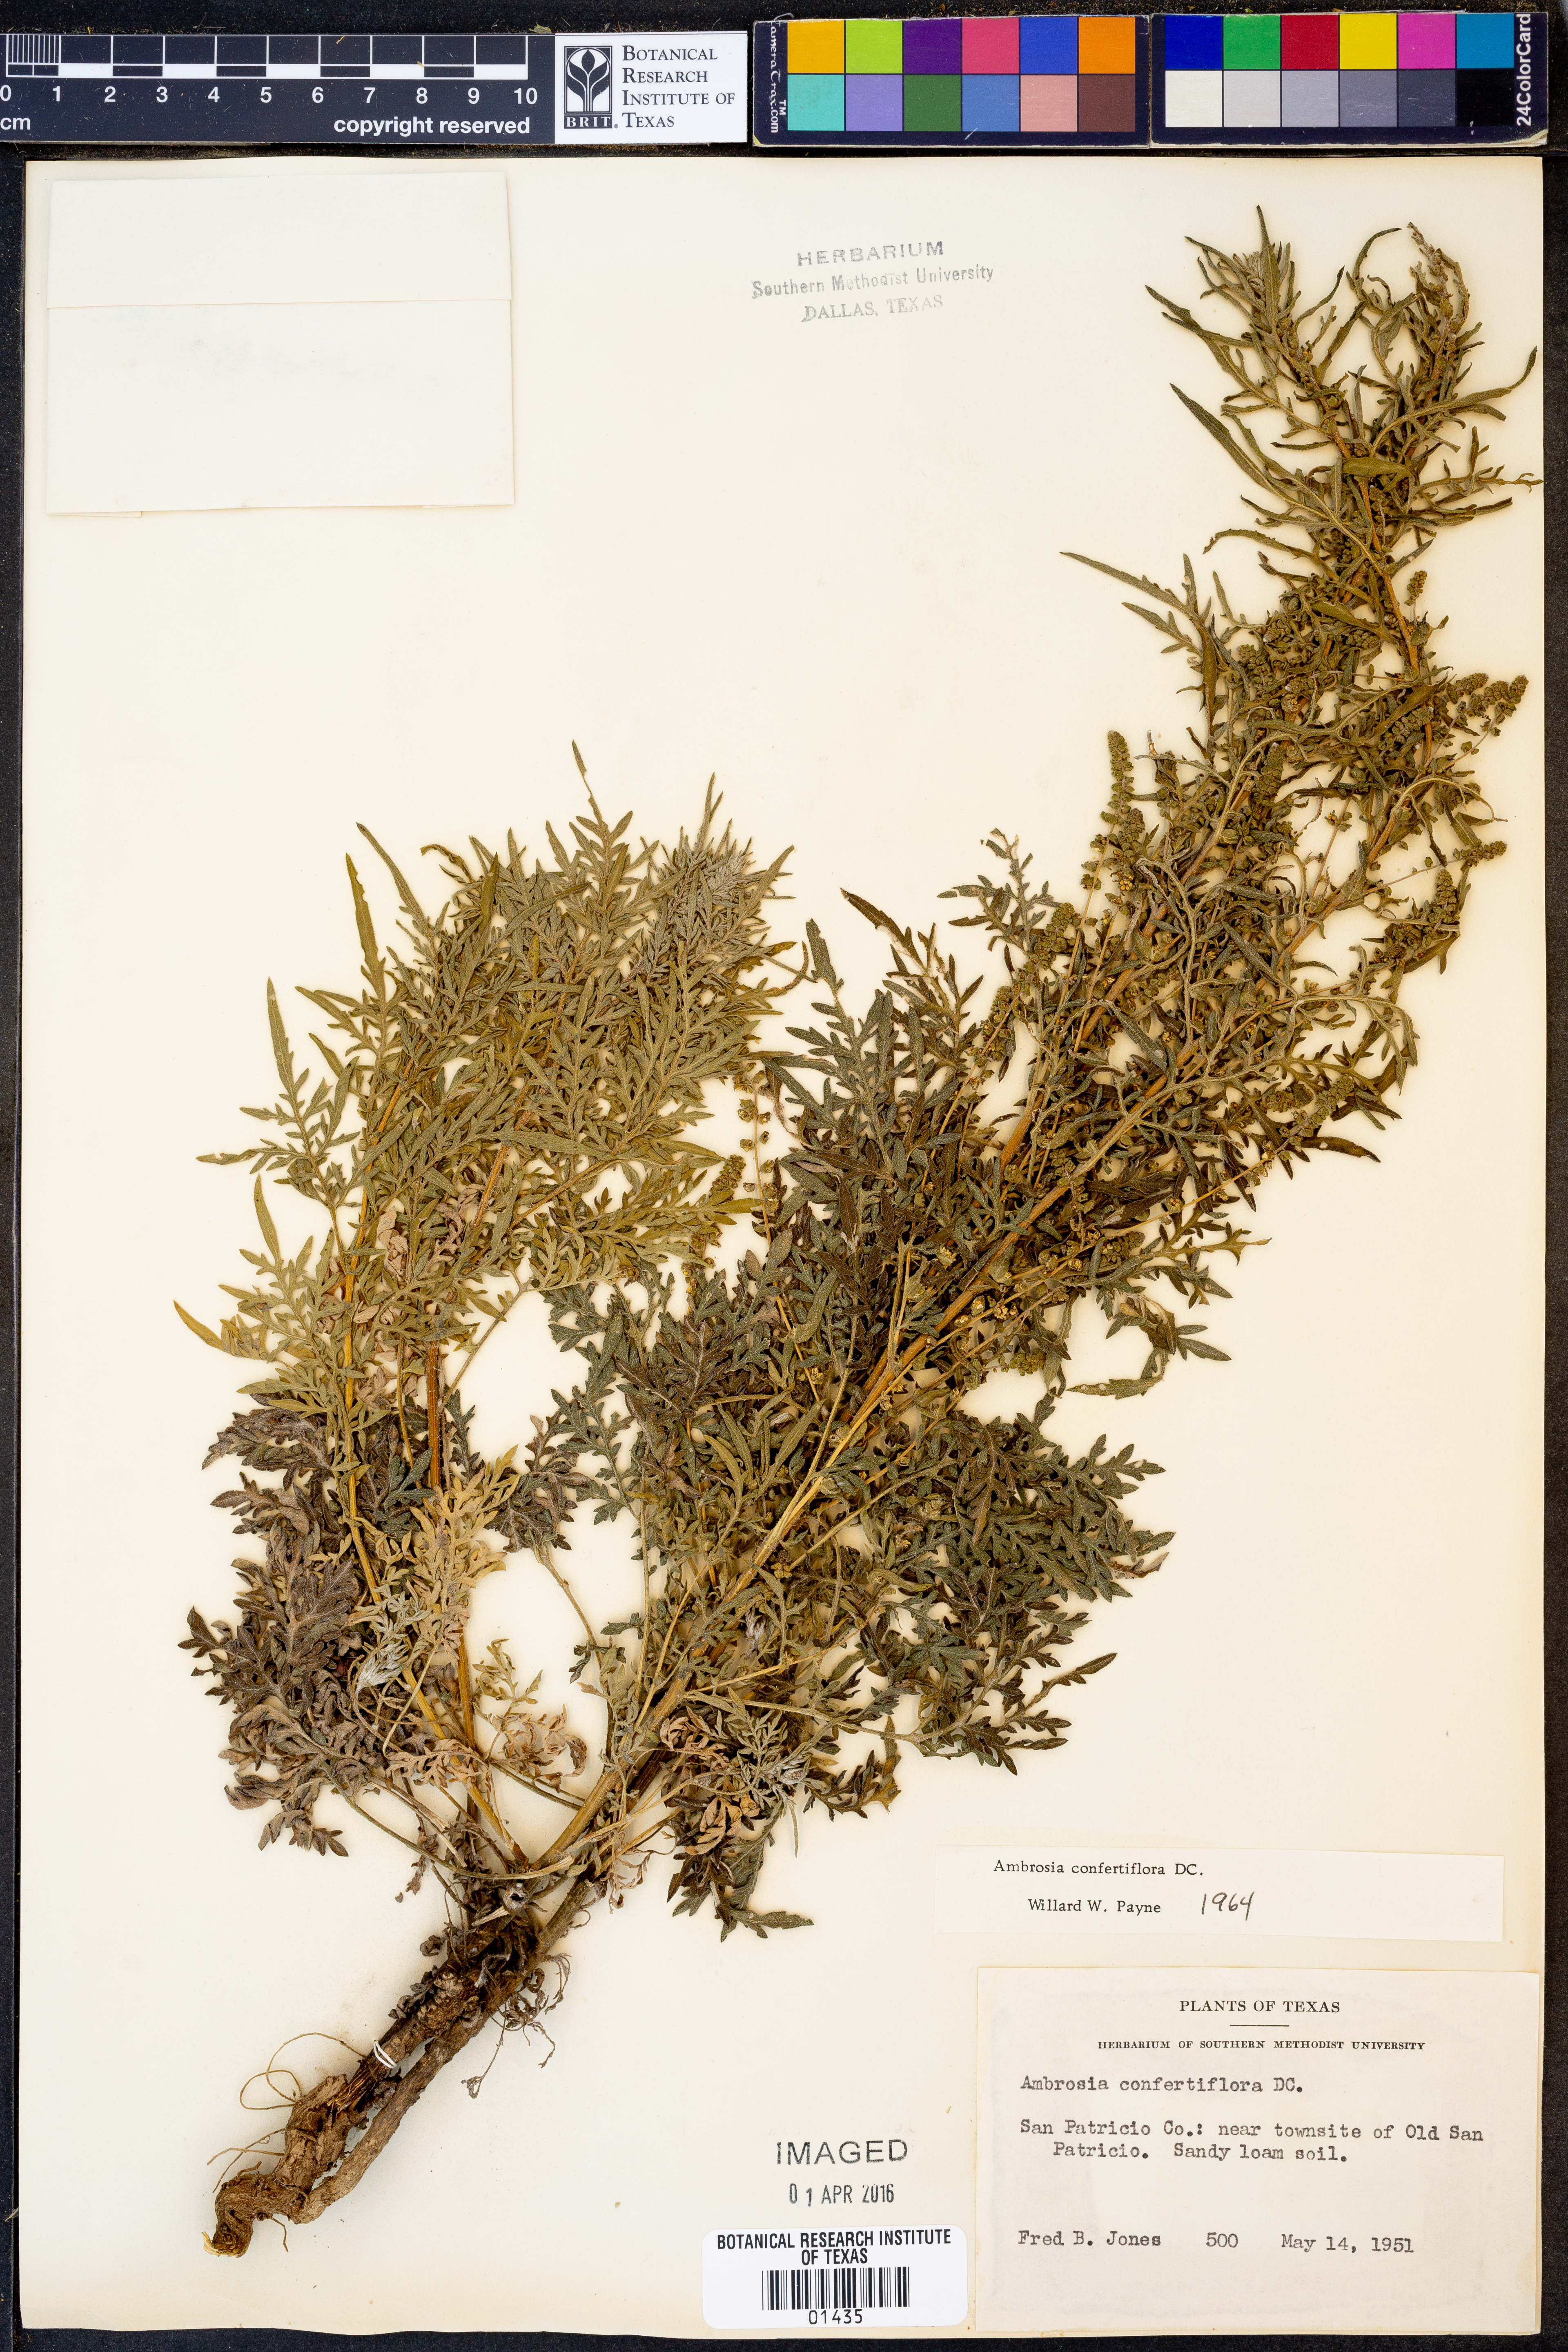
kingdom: Plantae
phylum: Tracheophyta
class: Magnoliopsida
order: Asterales
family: Asteraceae
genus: Ambrosia
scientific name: Ambrosia confertiflora
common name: Bur ragweed
